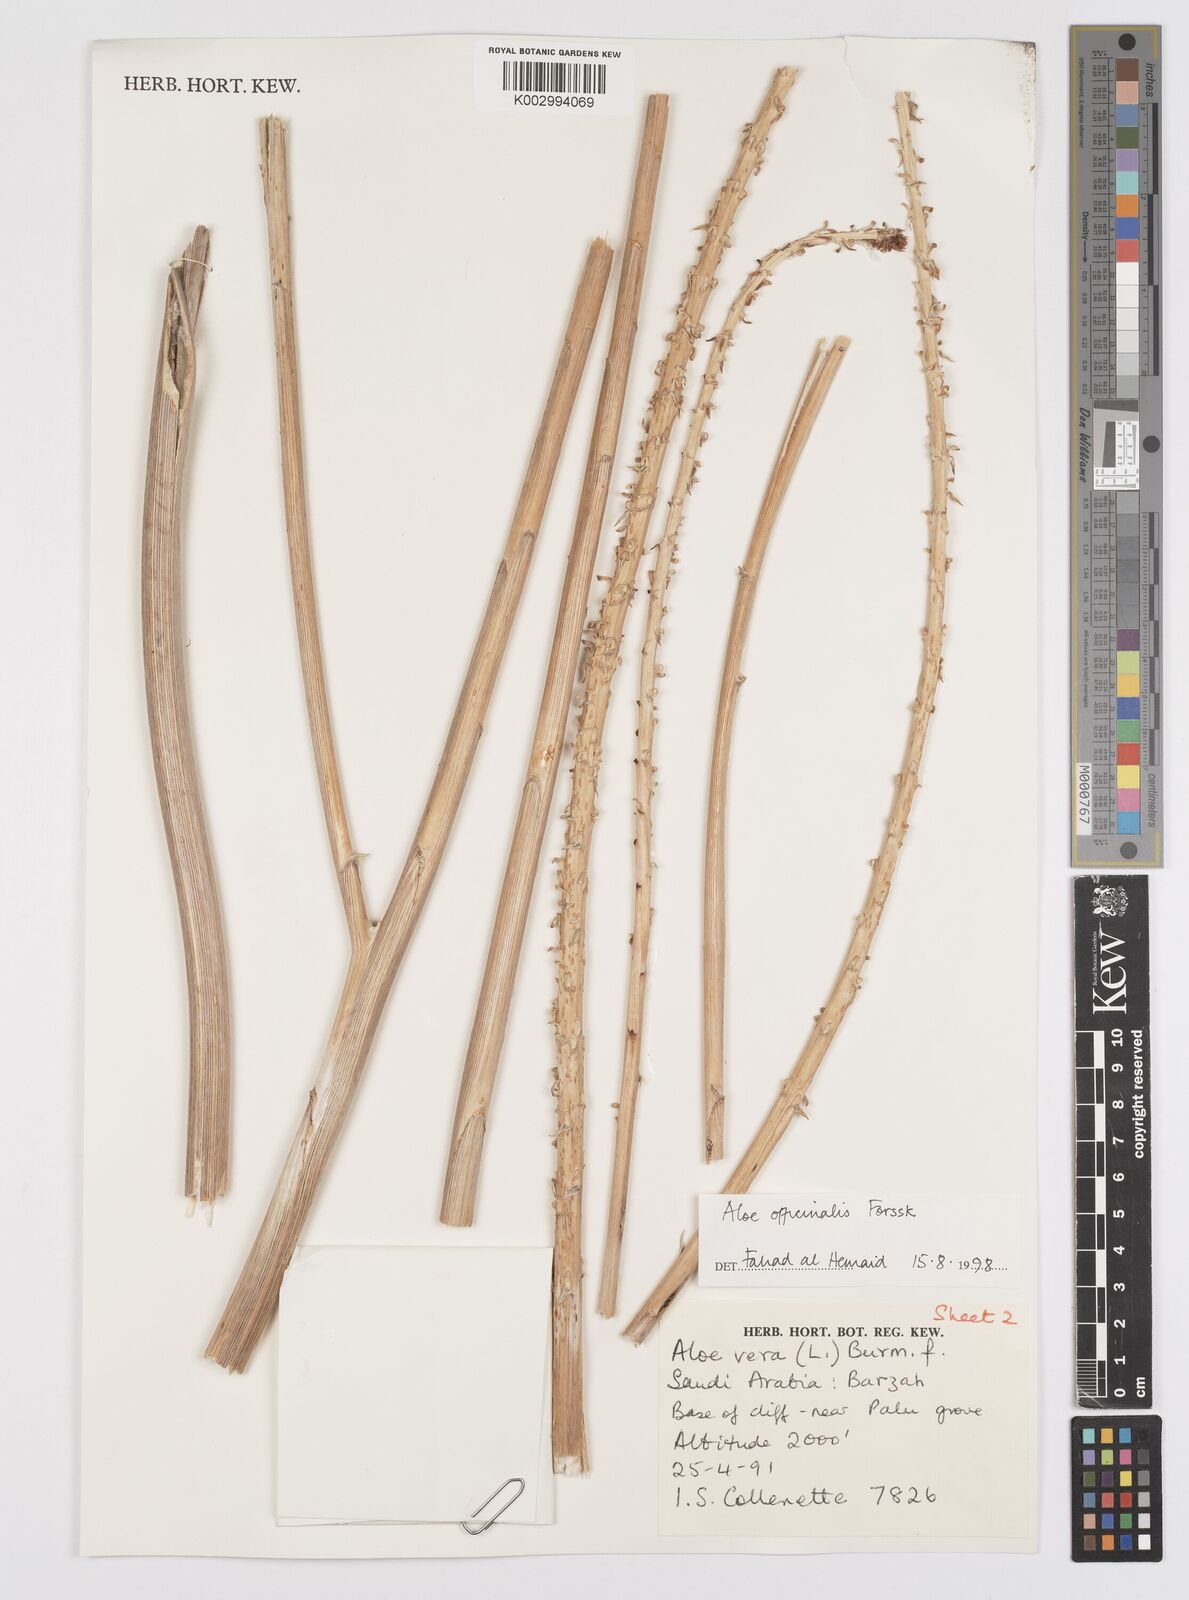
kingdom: Plantae
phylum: Tracheophyta
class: Liliopsida
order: Asparagales
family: Asphodelaceae
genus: Aloe
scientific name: Aloe officinalis
